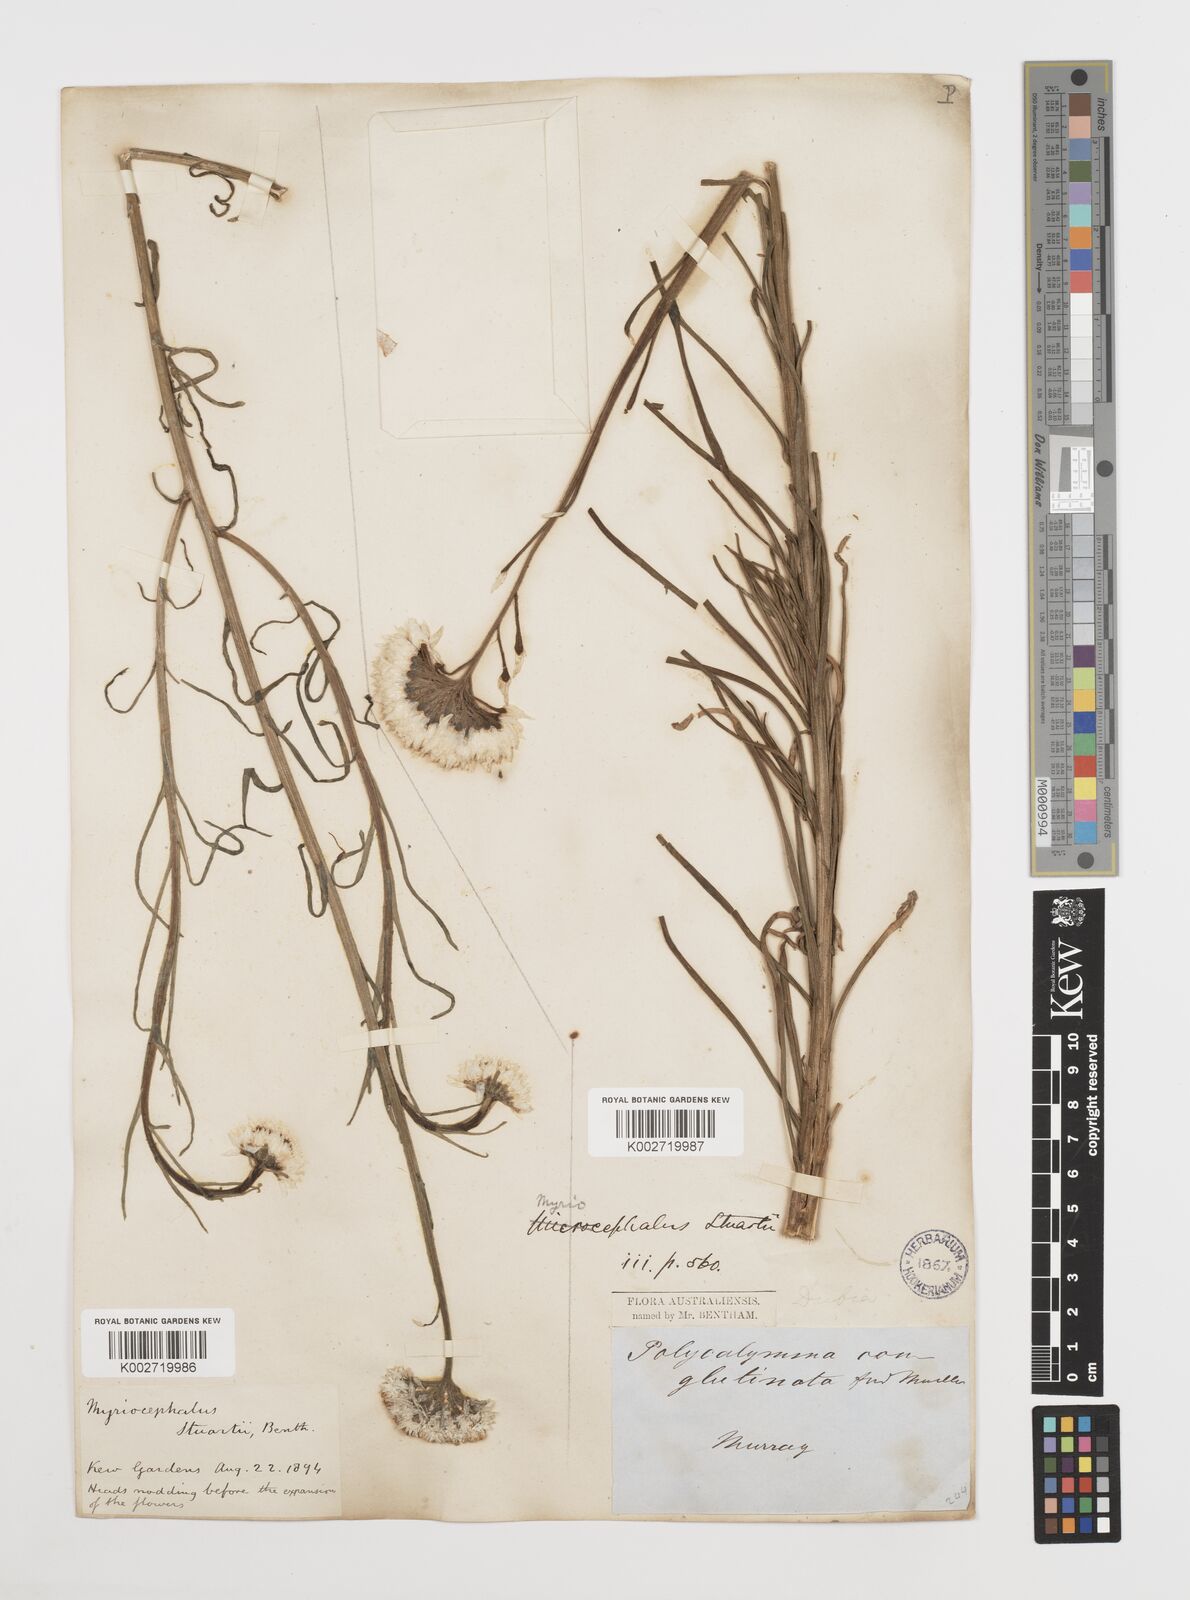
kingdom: Plantae
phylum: Tracheophyta
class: Magnoliopsida
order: Asterales
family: Asteraceae
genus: Polycalymma
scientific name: Polycalymma stuartii
